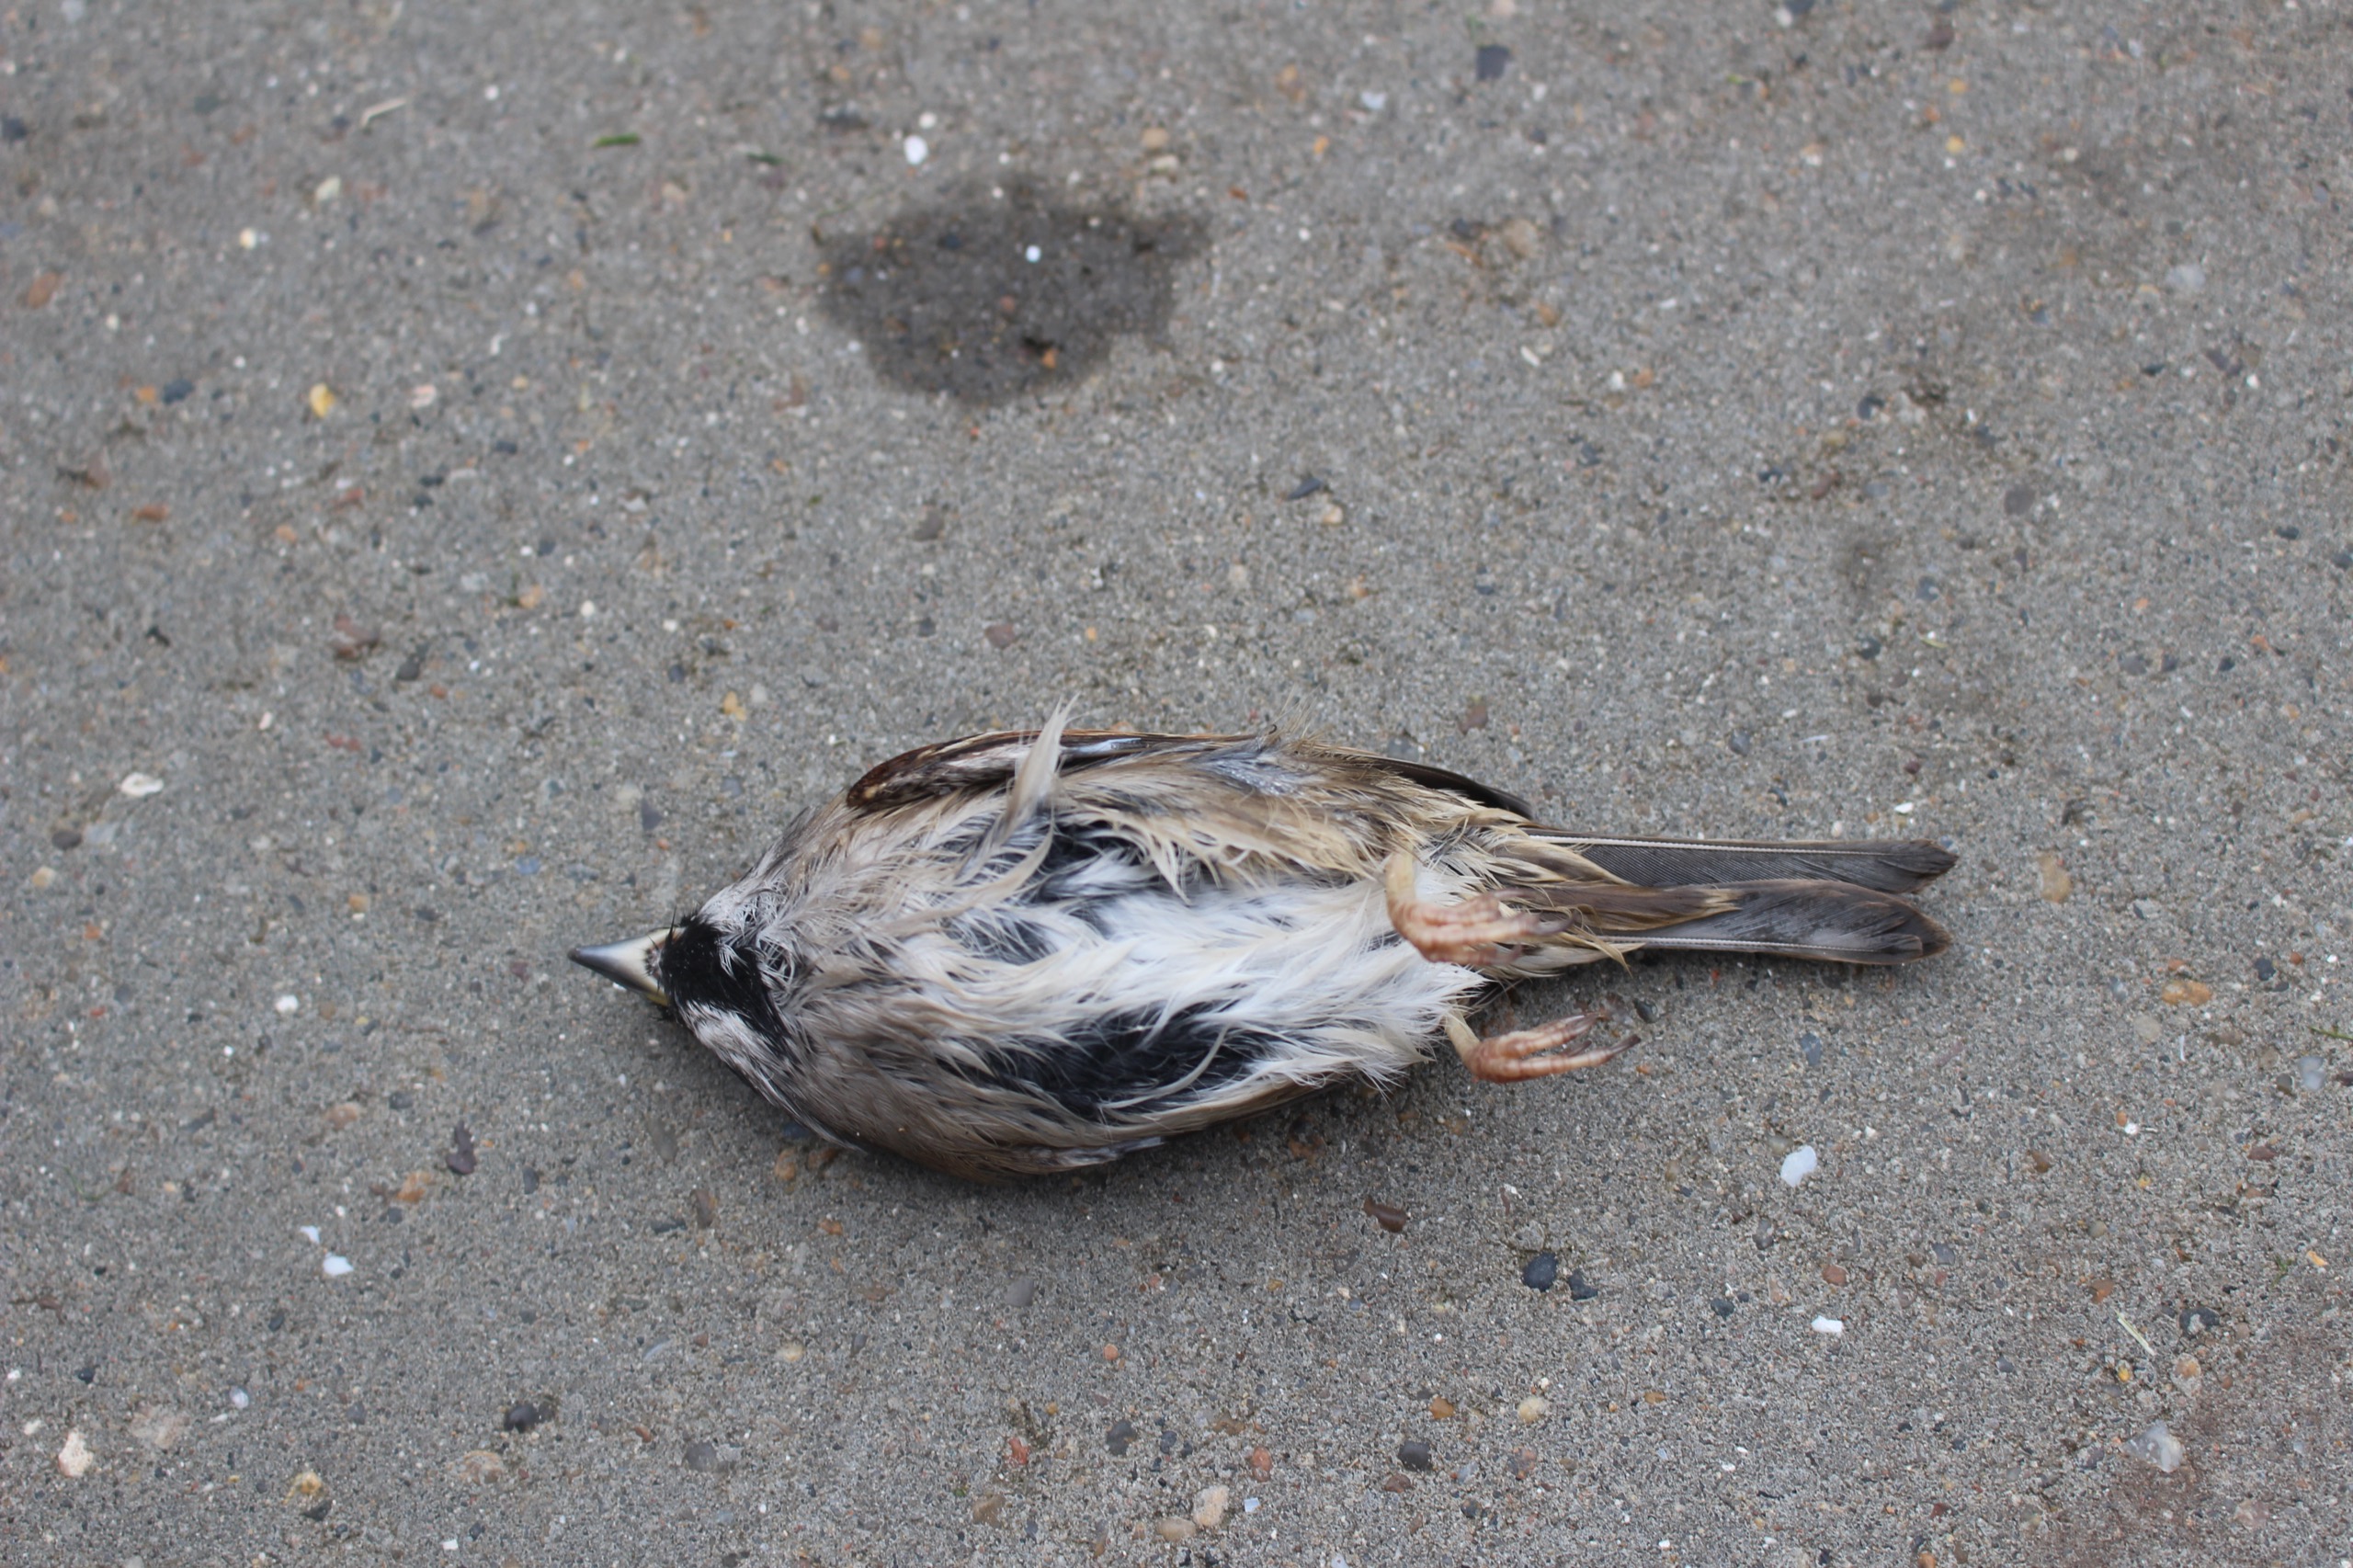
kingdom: Animalia
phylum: Chordata
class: Aves
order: Passeriformes
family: Passeridae
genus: Passer
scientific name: Passer montanus
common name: Skovspurv
